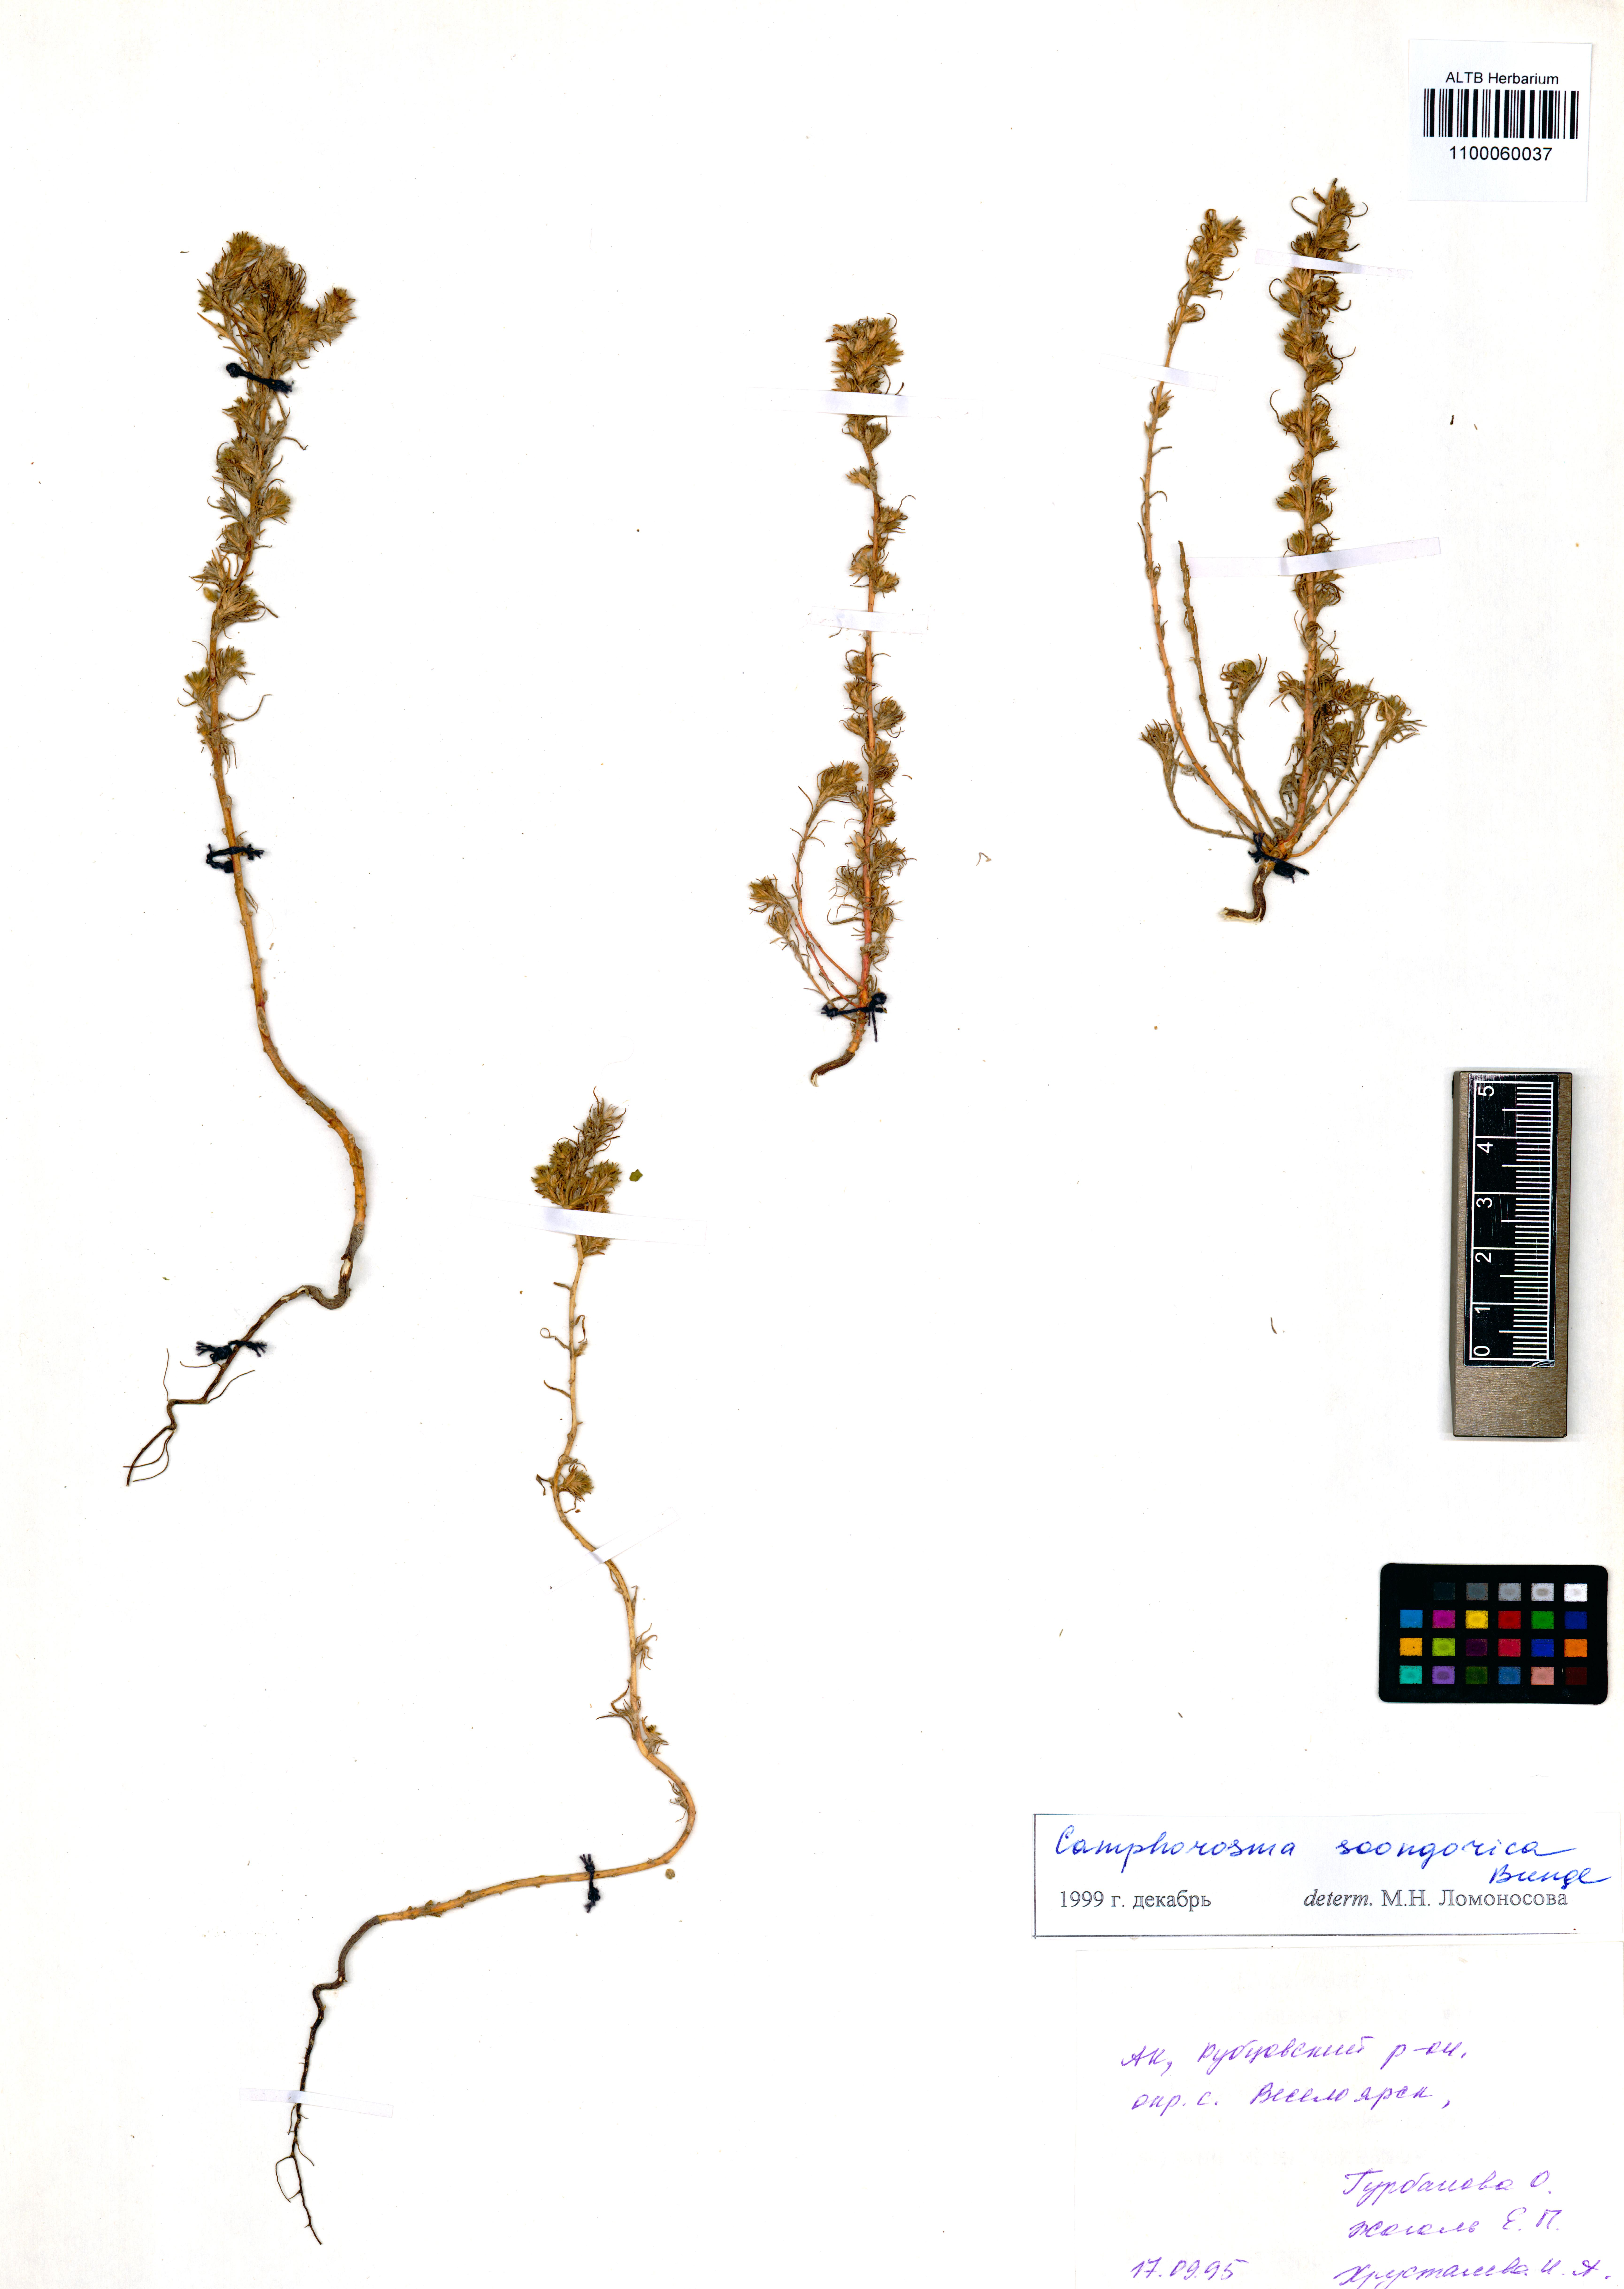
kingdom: Plantae
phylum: Tracheophyta
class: Magnoliopsida
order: Caryophyllales
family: Amaranthaceae
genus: Camphorosma
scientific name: Camphorosma songorica
